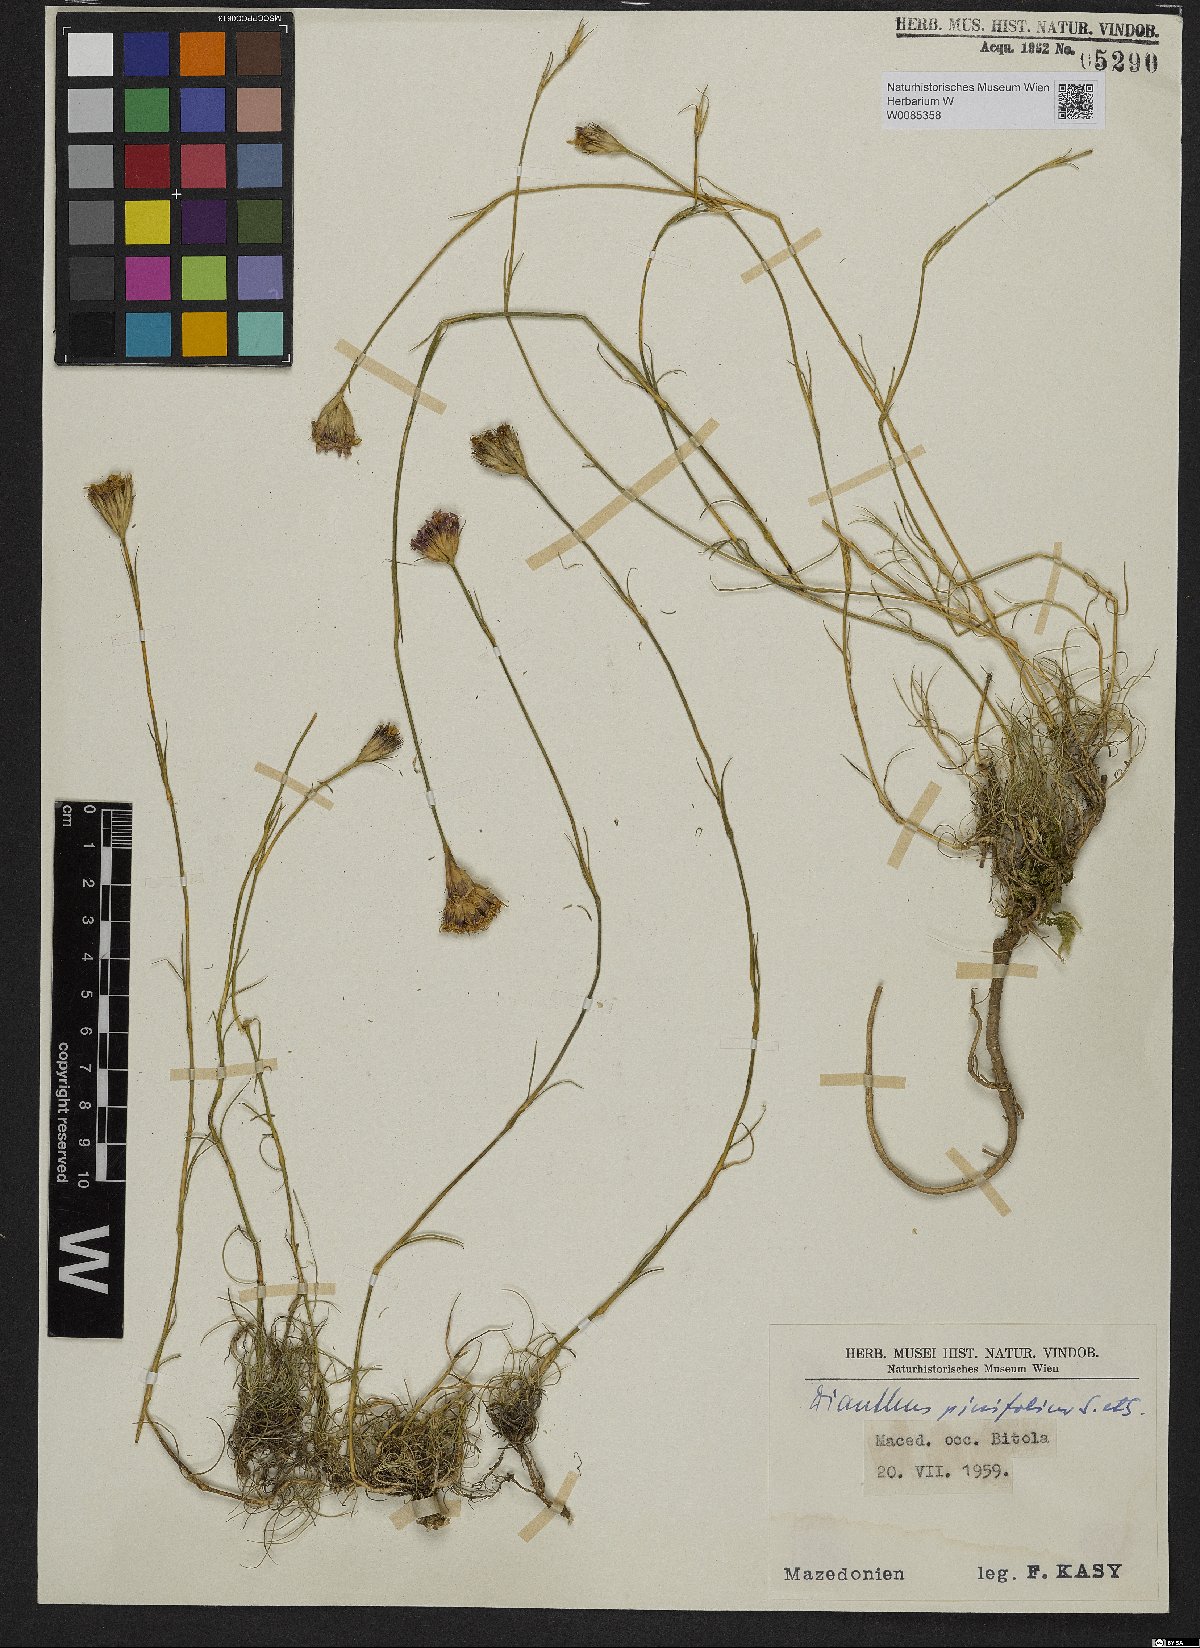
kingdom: Plantae
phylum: Tracheophyta
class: Magnoliopsida
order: Caryophyllales
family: Caryophyllaceae
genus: Dianthus
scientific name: Dianthus pinifolius
